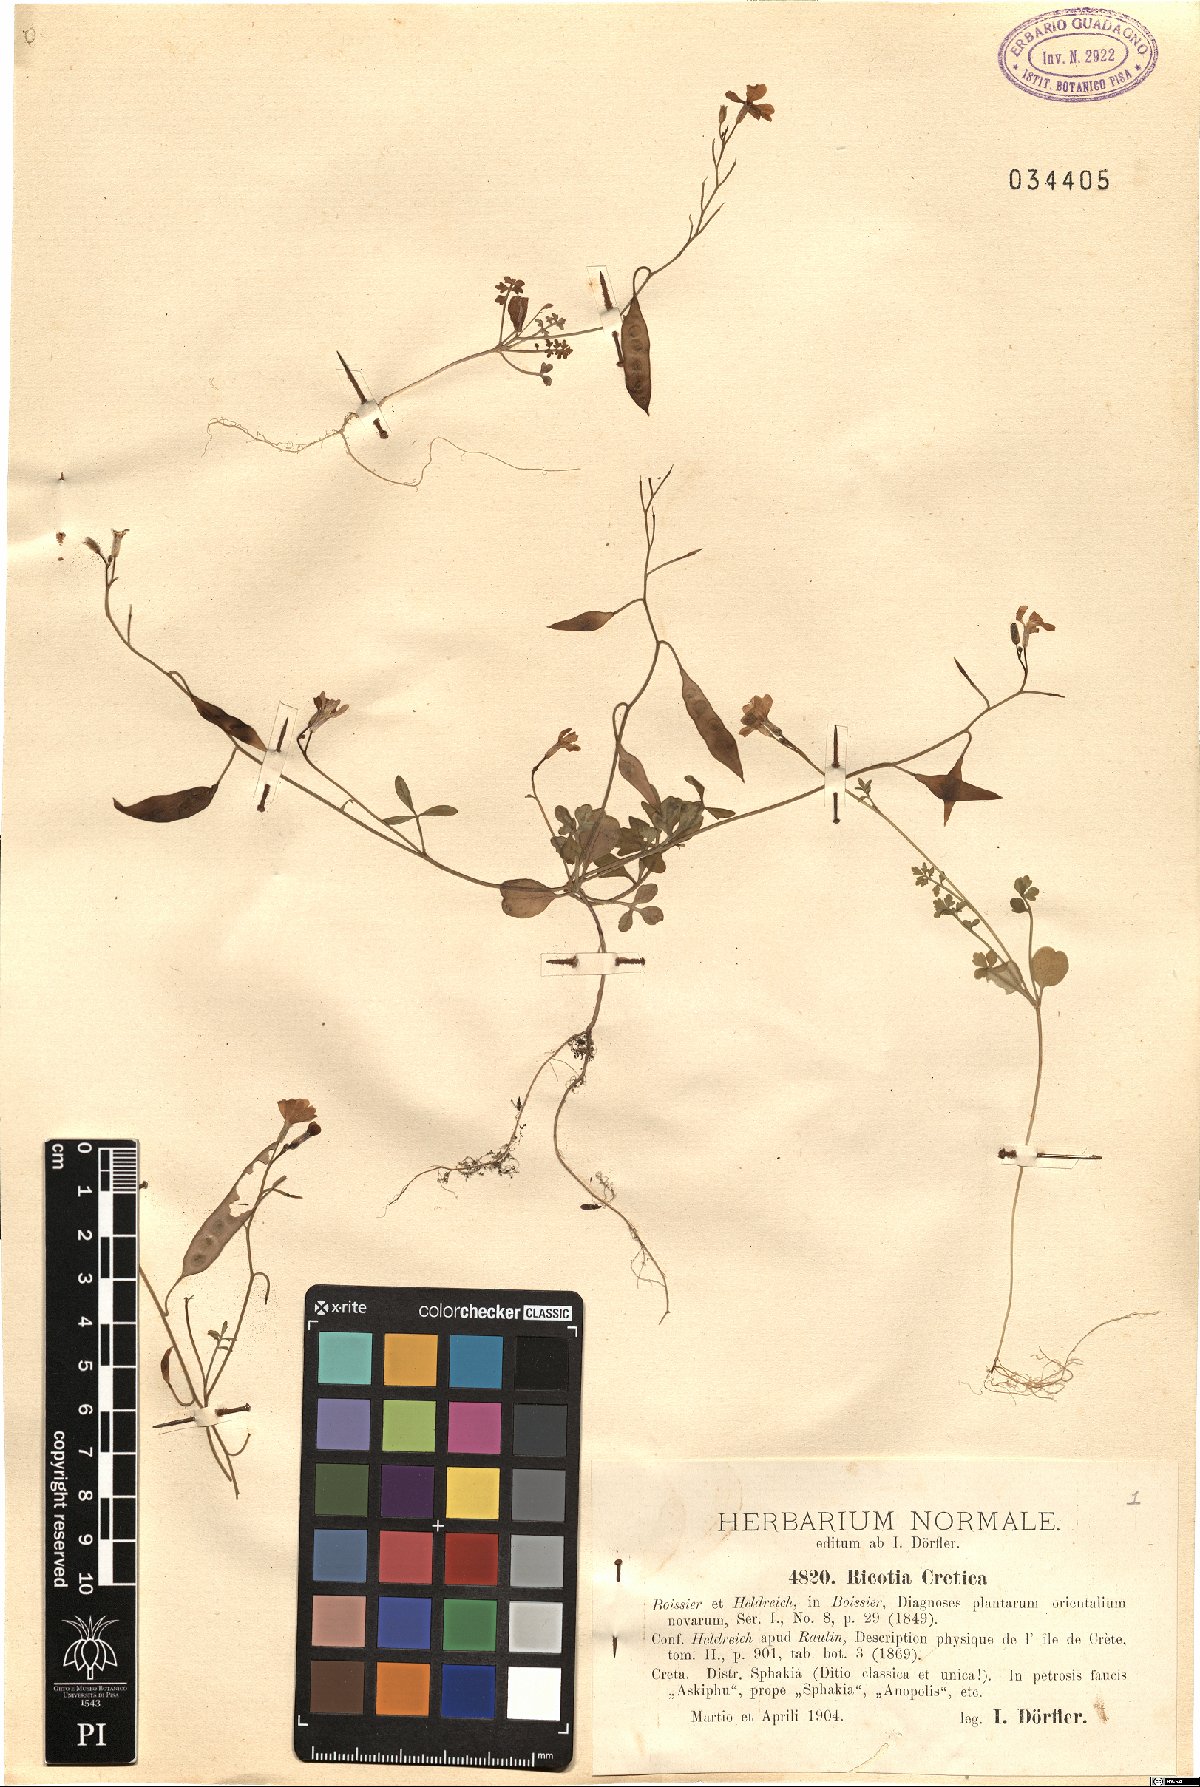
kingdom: Plantae
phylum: Tracheophyta
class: Magnoliopsida
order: Brassicales
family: Brassicaceae
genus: Ricotia
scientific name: Ricotia cretica
